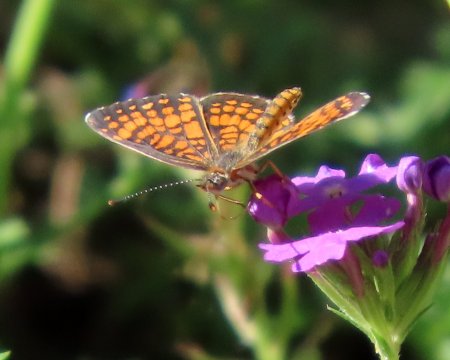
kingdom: Animalia
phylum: Arthropoda
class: Insecta
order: Lepidoptera
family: Nymphalidae
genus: Texola
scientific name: Texola elada
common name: Elada Checkerspot
